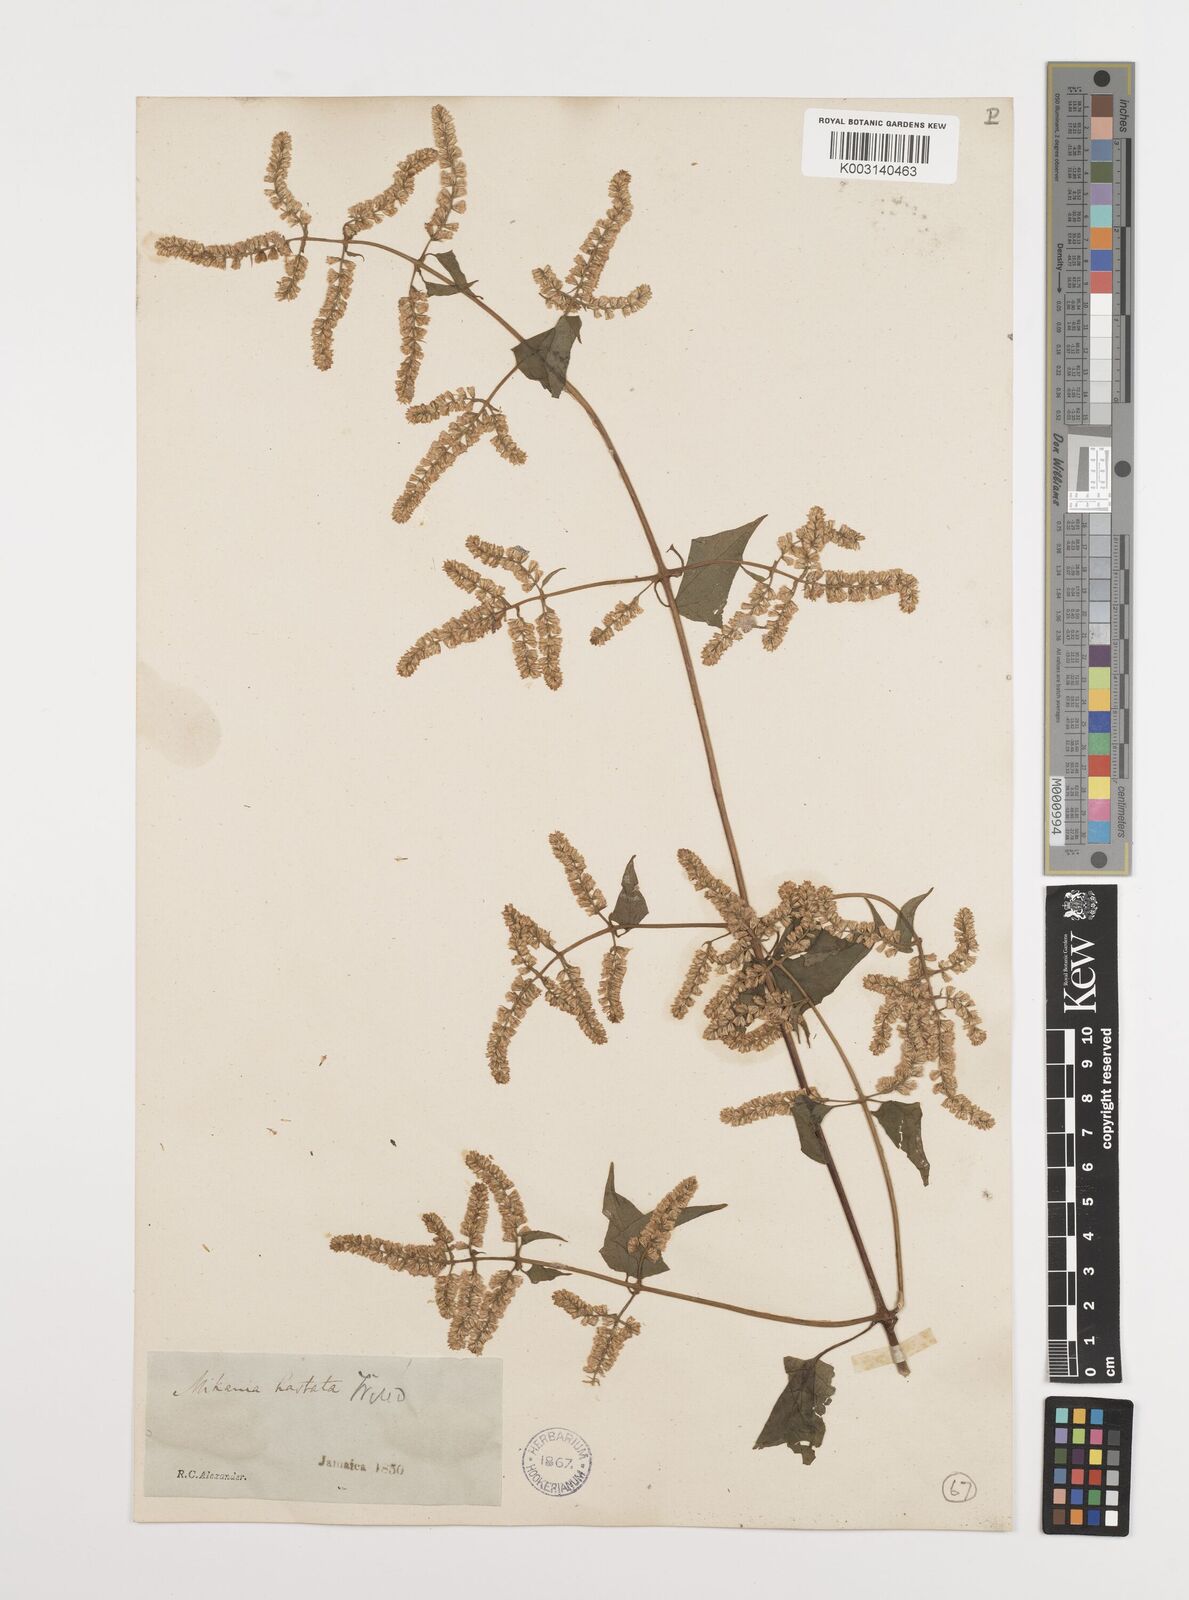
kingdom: Plantae
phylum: Tracheophyta
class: Magnoliopsida
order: Asterales
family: Asteraceae
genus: Mikania
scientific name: Mikania hastata
